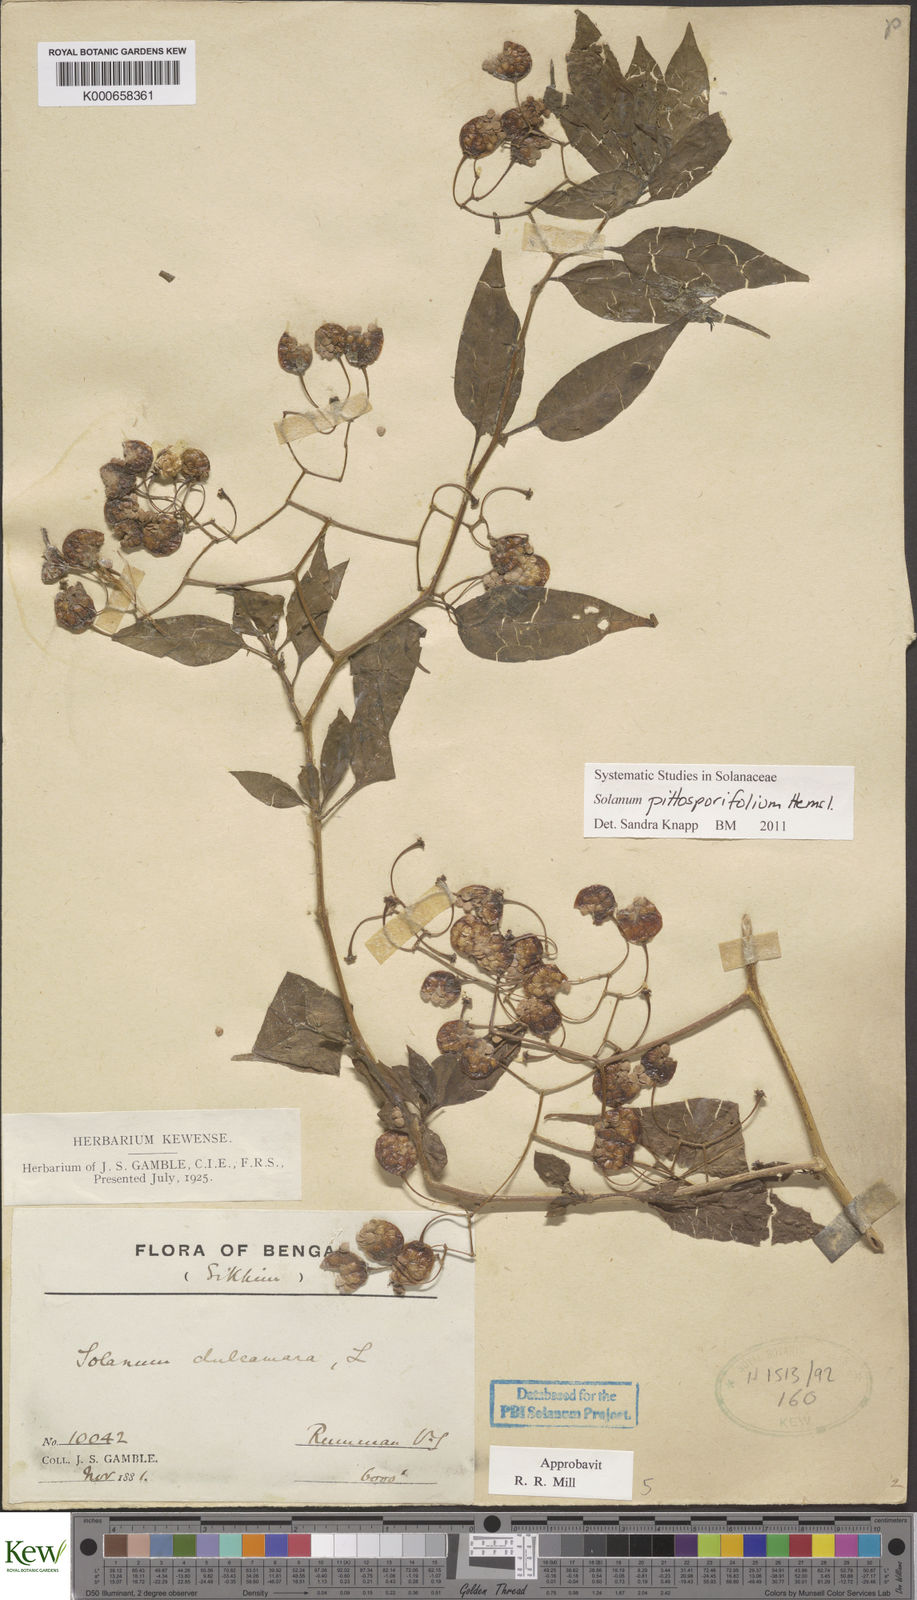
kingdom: Plantae
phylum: Tracheophyta
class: Magnoliopsida
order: Solanales
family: Solanaceae
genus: Solanum
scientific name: Solanum pittosporifolium
